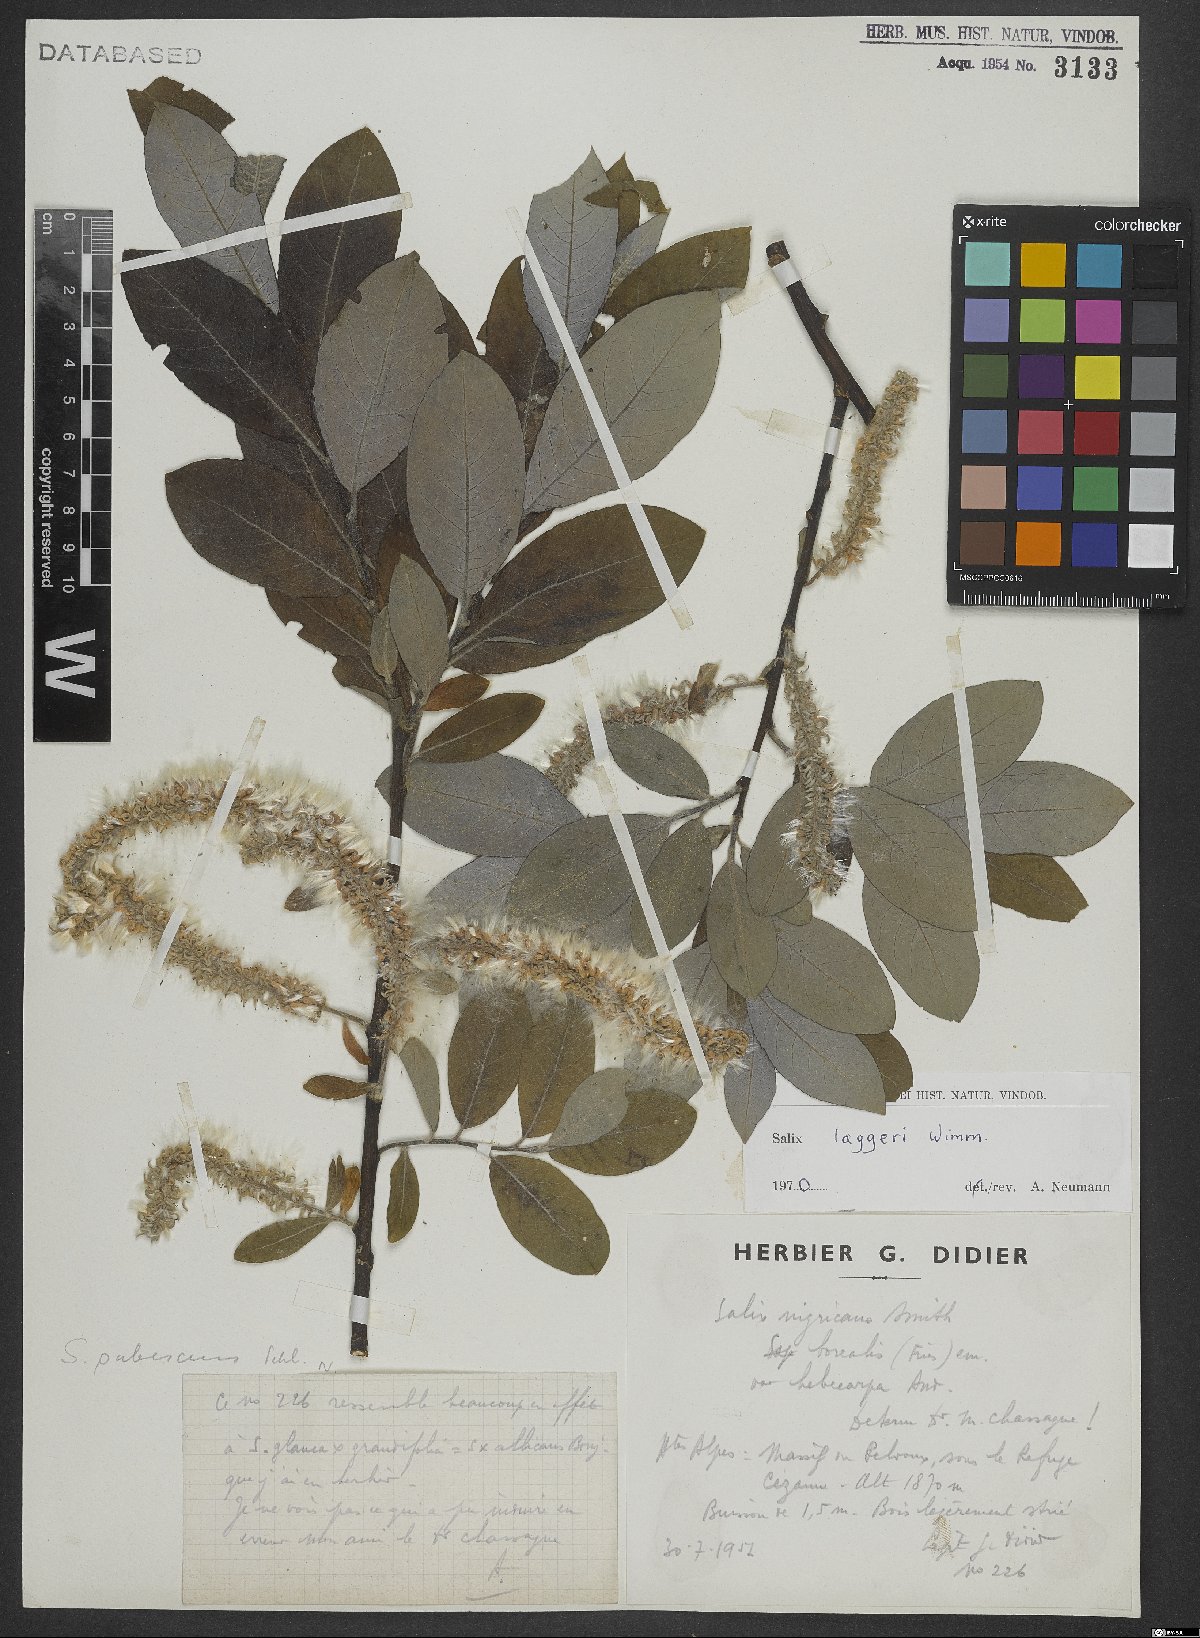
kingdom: Plantae
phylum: Tracheophyta
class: Magnoliopsida
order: Malpighiales
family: Salicaceae
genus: Salix
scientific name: Salix laggeri
